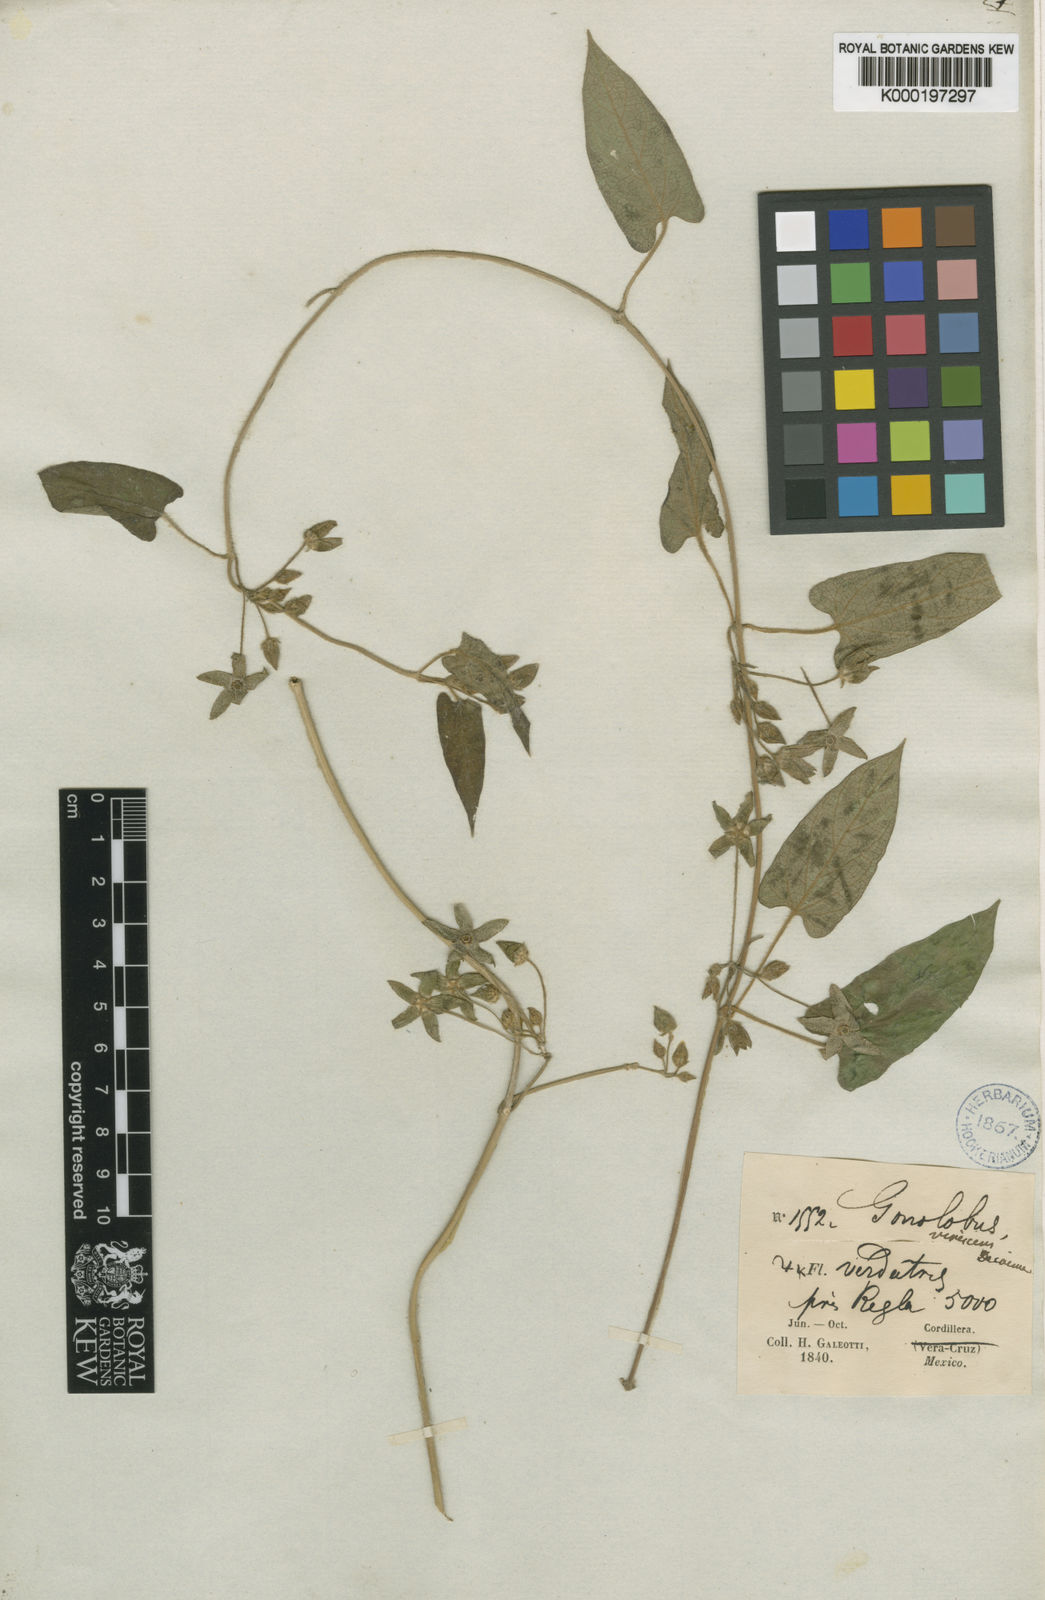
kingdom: Plantae
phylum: Tracheophyta
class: Magnoliopsida
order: Gentianales
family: Apocynaceae
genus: Gonolobus
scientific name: Gonolobus virescens
